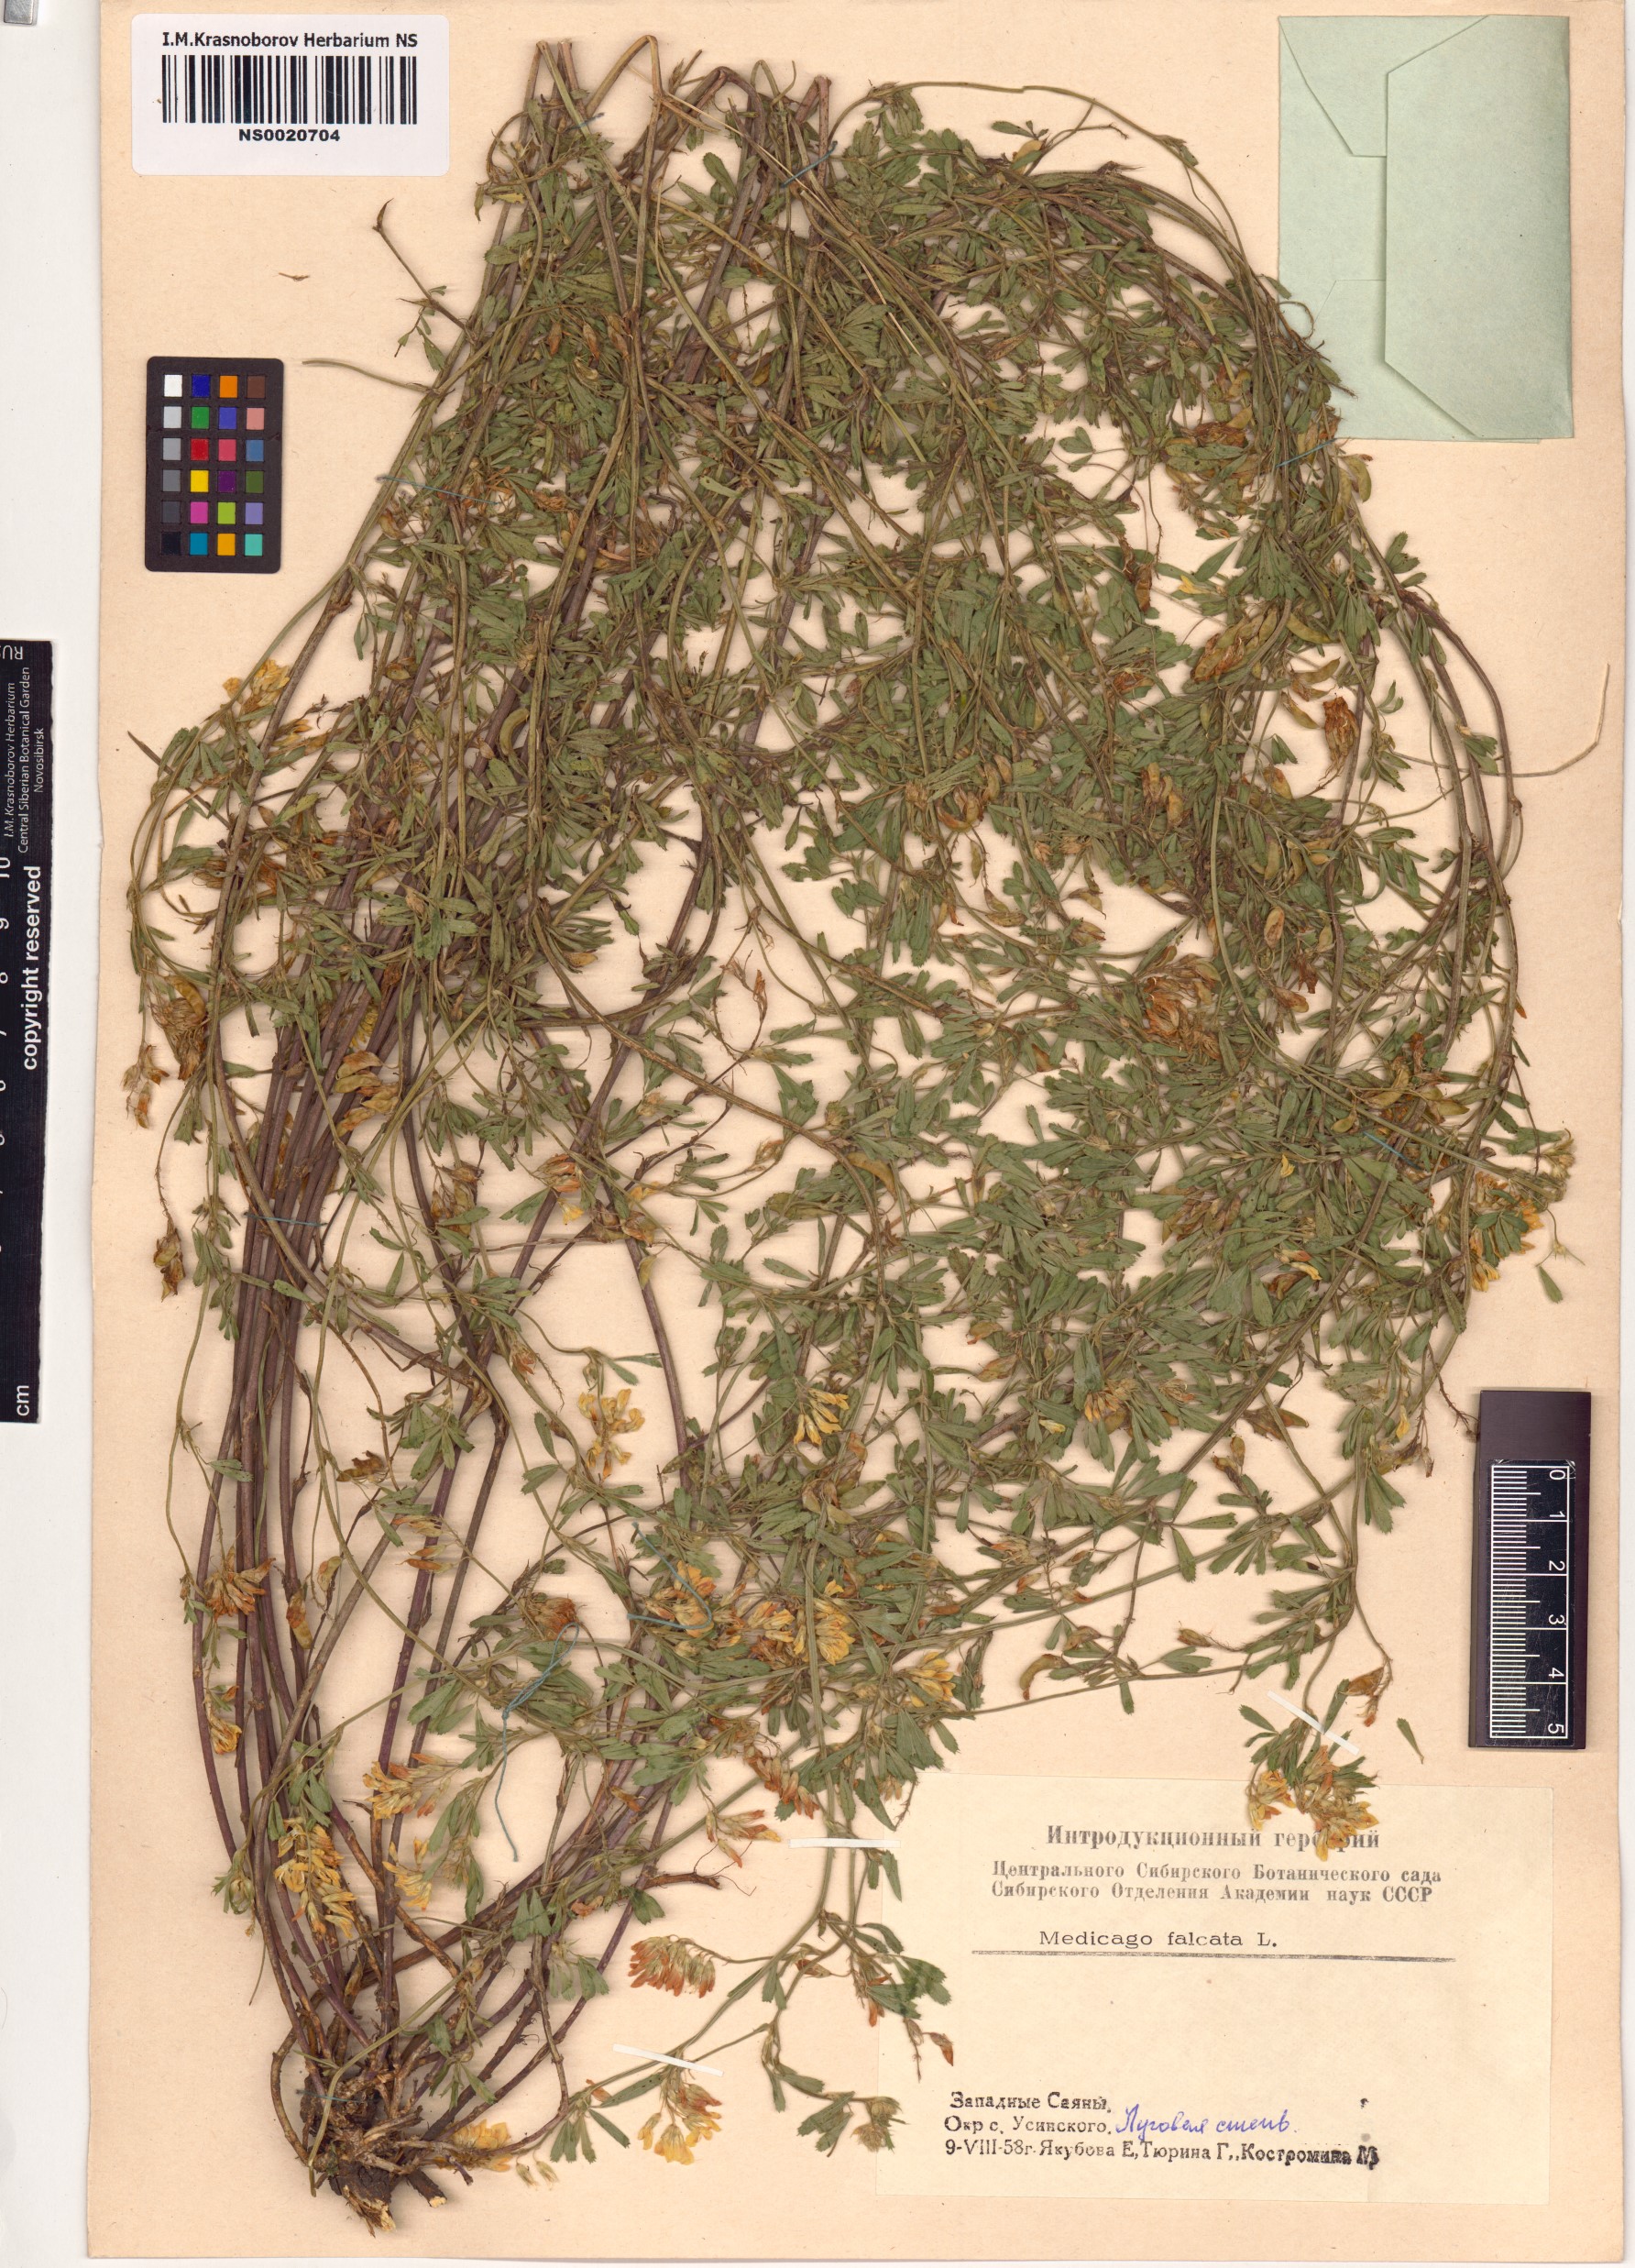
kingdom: Plantae
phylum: Tracheophyta
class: Magnoliopsida
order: Fabales
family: Fabaceae
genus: Medicago
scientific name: Medicago falcata
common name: Sickle medick
